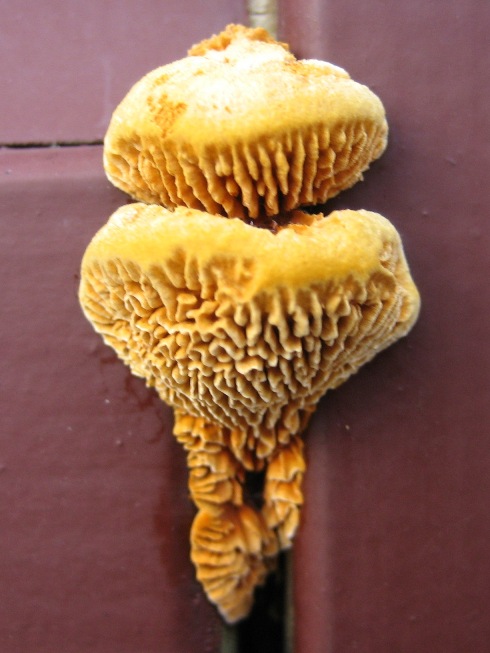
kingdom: Fungi
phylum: Basidiomycota
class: Agaricomycetes
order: Gloeophyllales
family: Gloeophyllaceae
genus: Gloeophyllum
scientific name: Gloeophyllum sepiarium
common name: fyrre-korkhat
